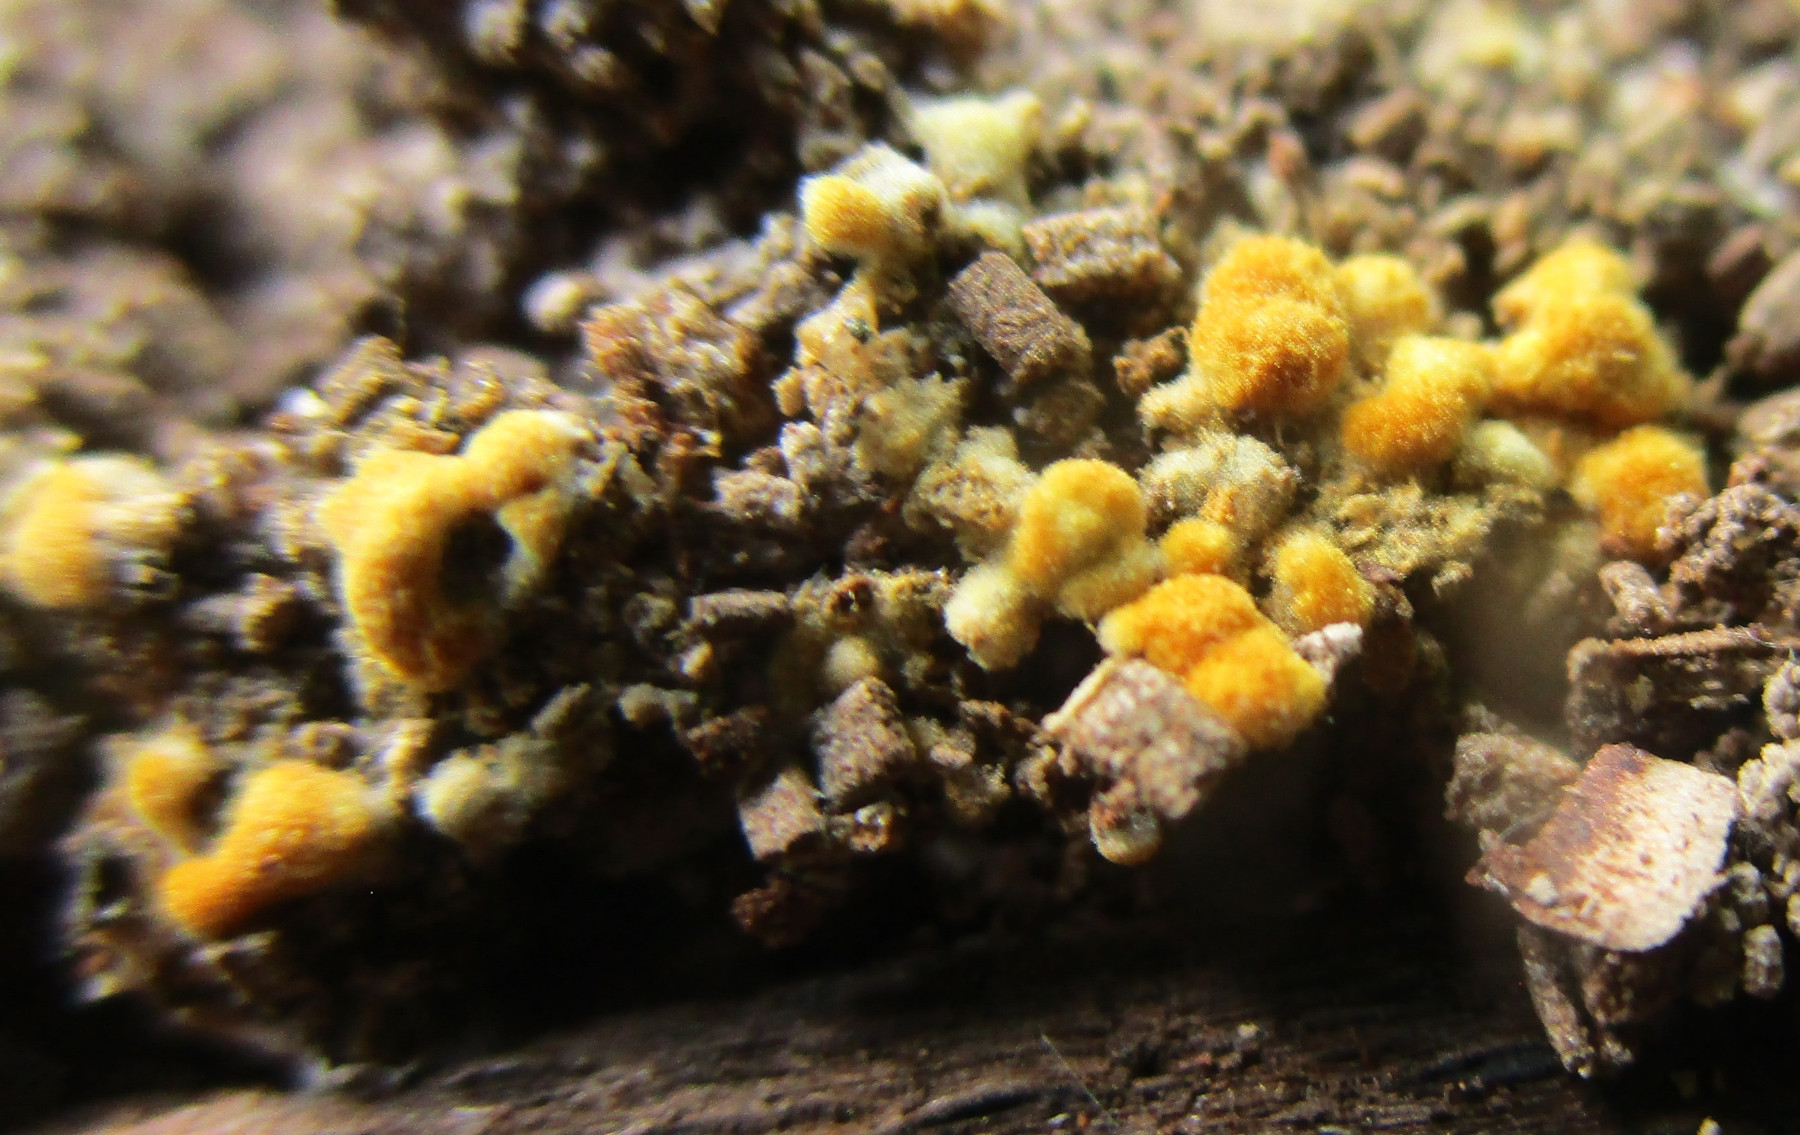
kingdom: Fungi
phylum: Basidiomycota
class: Agaricomycetes
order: Cantharellales
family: Botryobasidiaceae
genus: Botryobasidium
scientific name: Botryobasidium aureum
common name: gylden spindhinde
